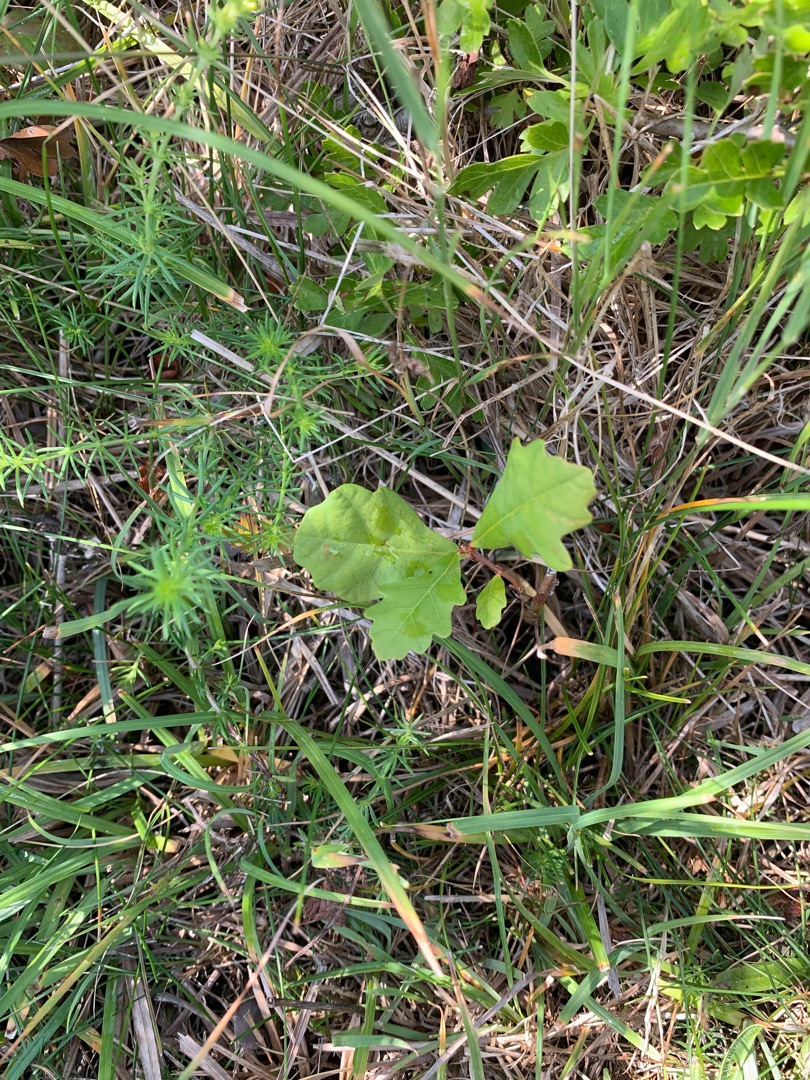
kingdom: Plantae
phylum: Tracheophyta
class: Magnoliopsida
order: Fagales
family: Fagaceae
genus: Quercus
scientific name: Quercus robur
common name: Stilk-eg/almindelig eg
